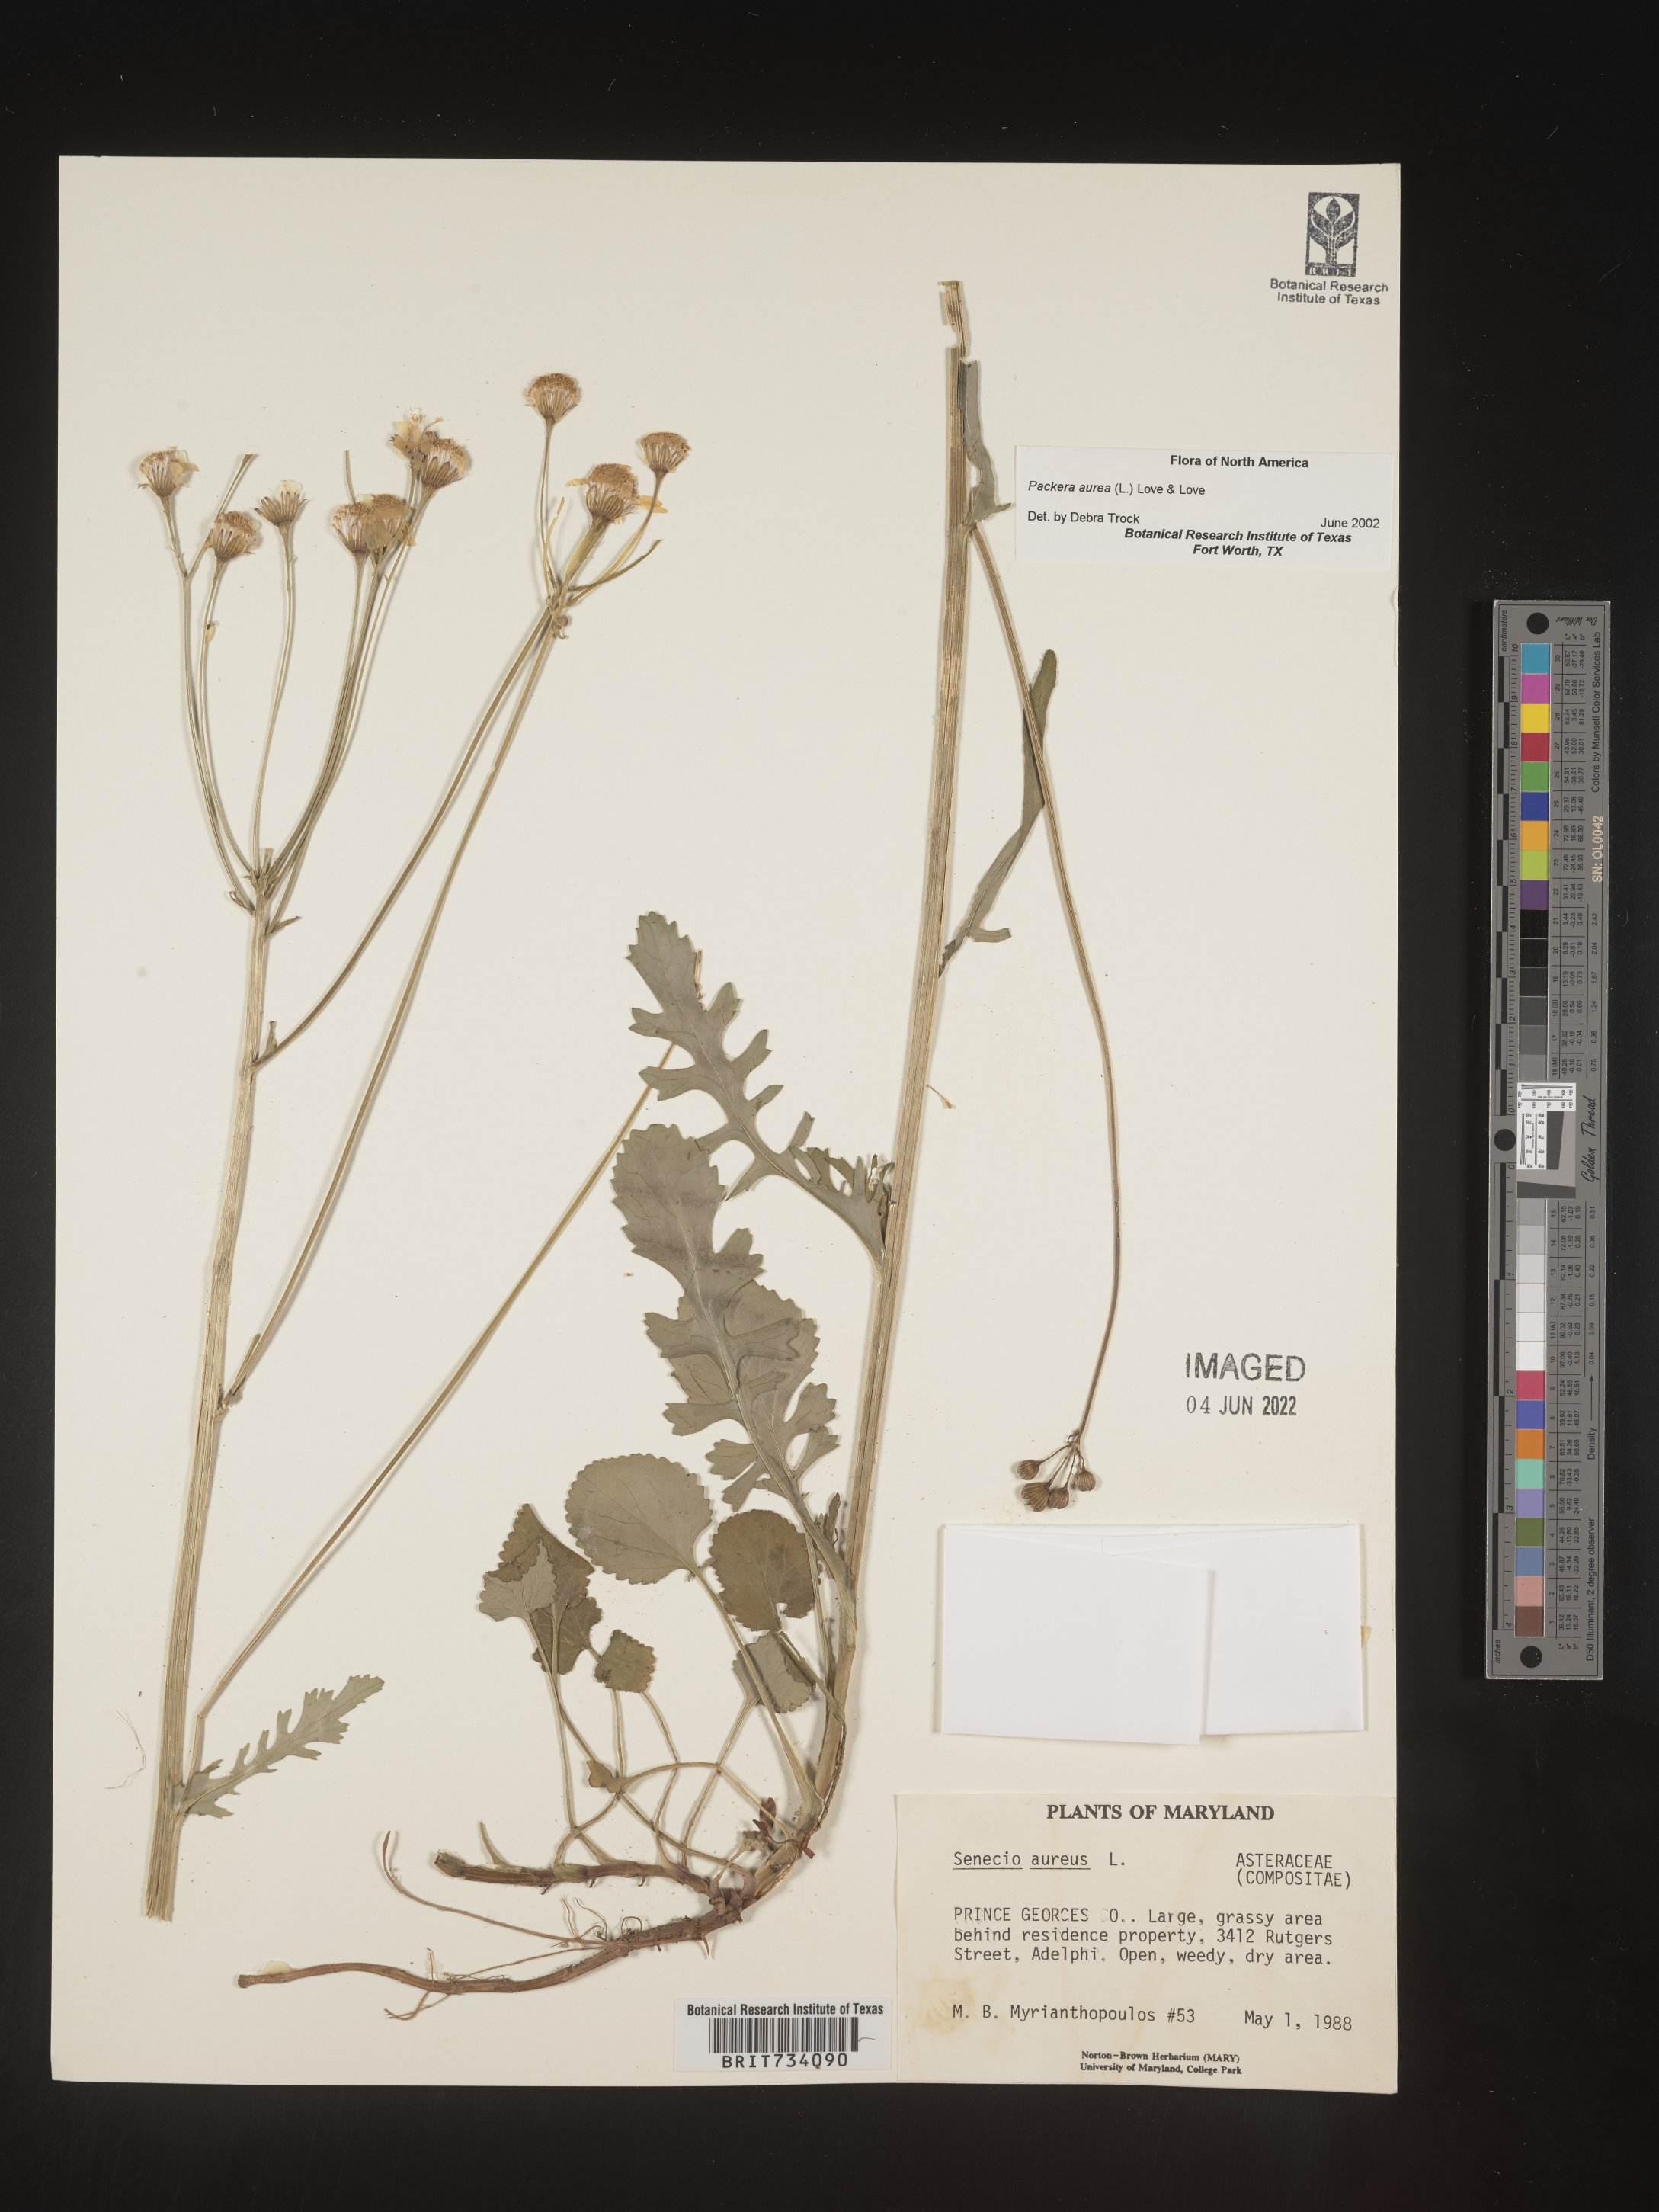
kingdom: Plantae
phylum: Tracheophyta
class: Magnoliopsida
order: Asterales
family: Asteraceae
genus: Packera
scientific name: Packera aurea
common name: Golden groundsel
